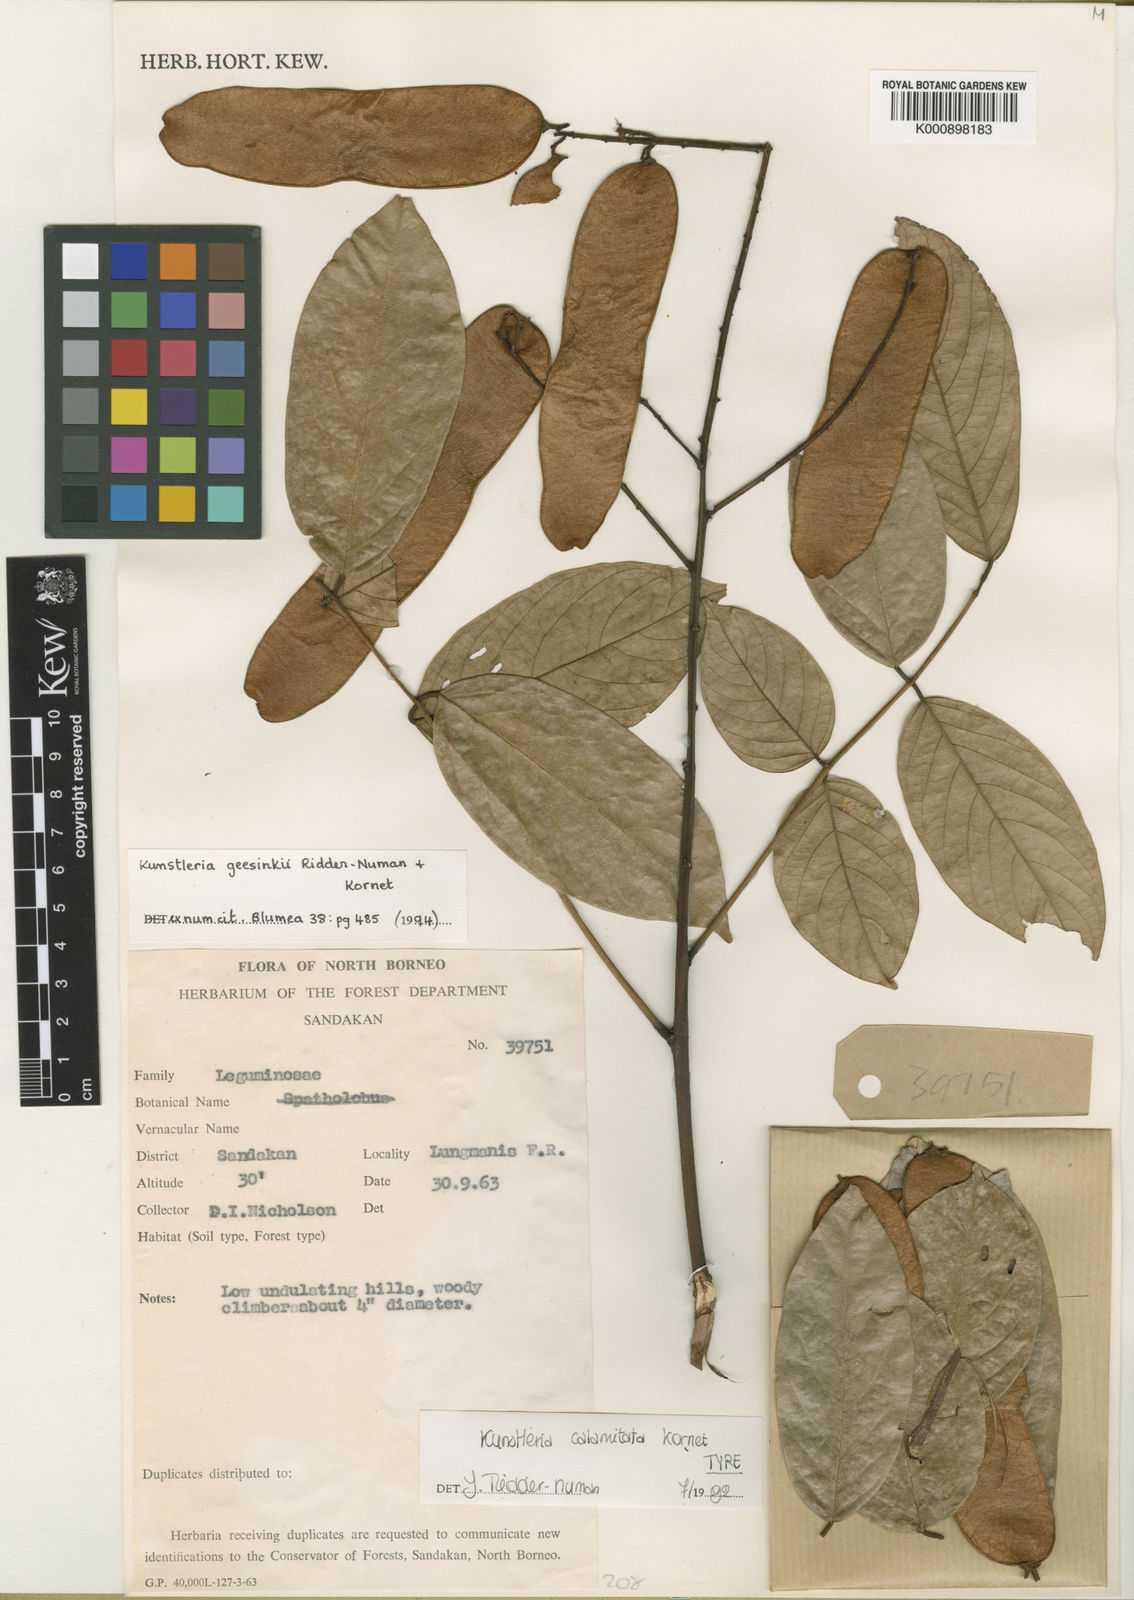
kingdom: Plantae
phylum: Tracheophyta
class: Magnoliopsida
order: Fabales
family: Fabaceae
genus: Kunstleria
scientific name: Kunstleria geesinkii
